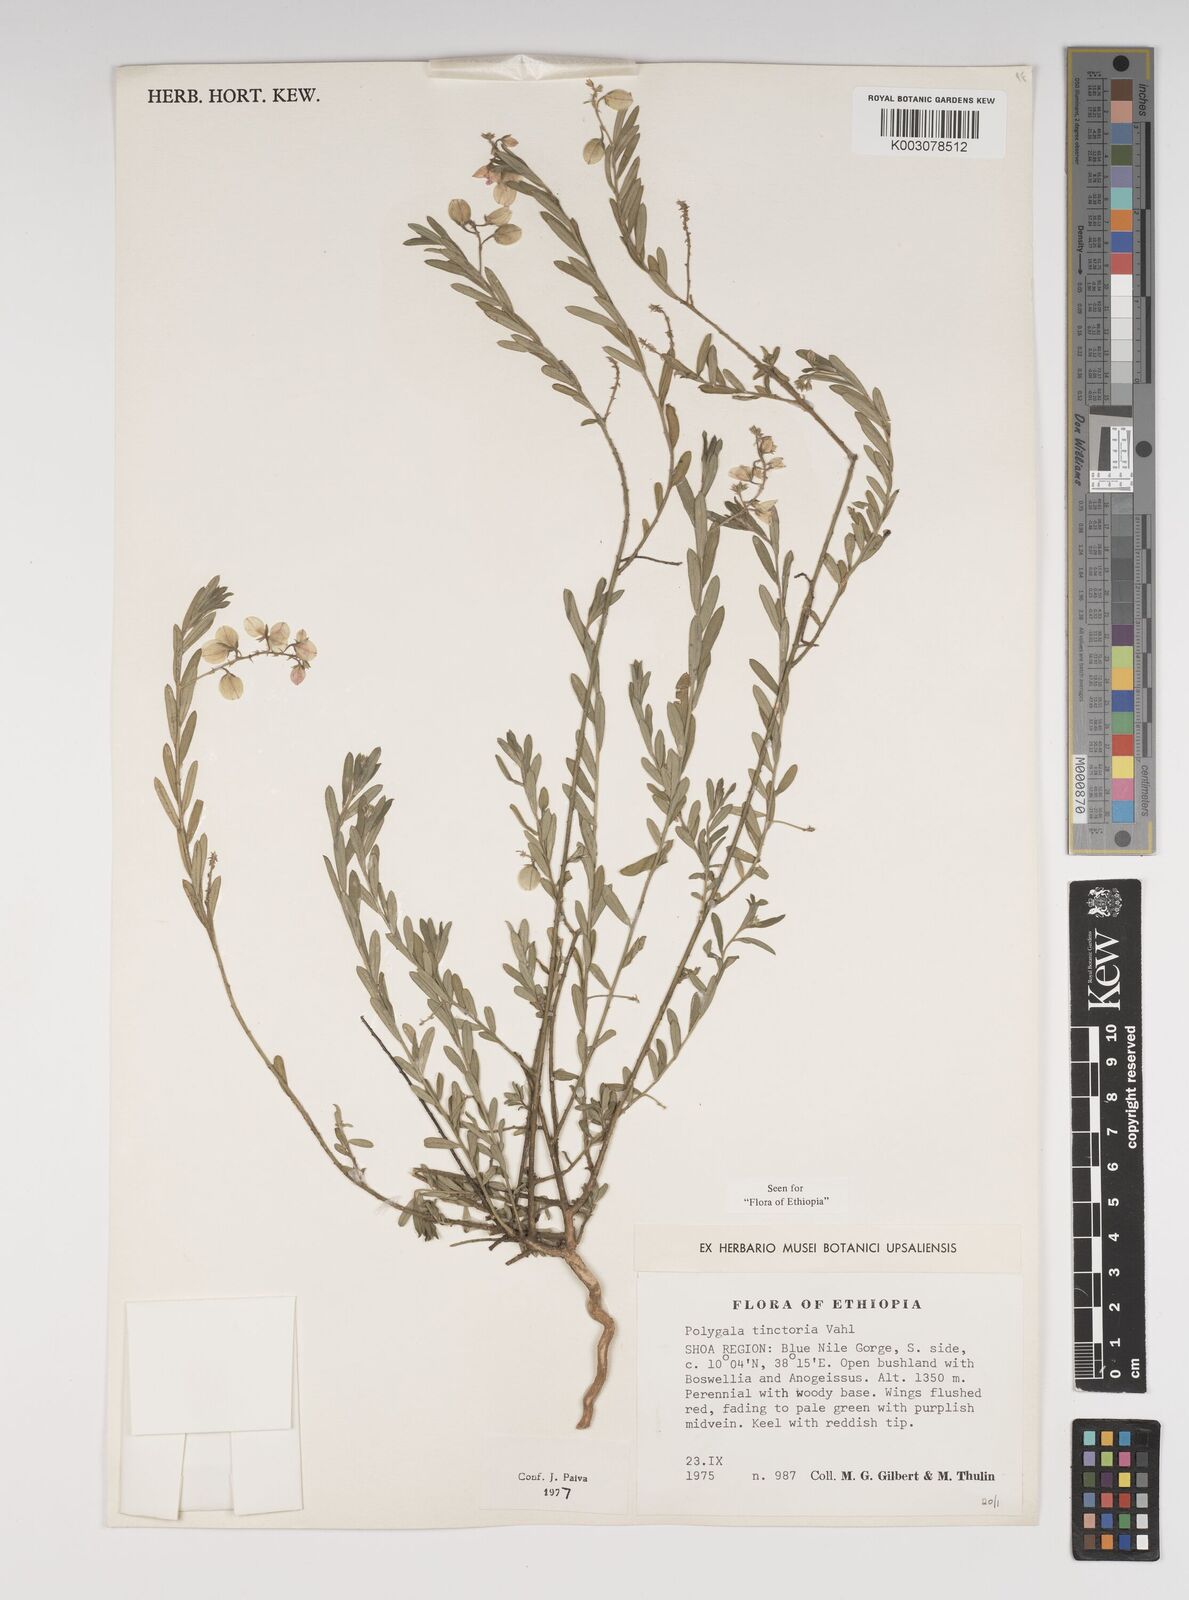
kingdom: Plantae
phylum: Tracheophyta
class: Magnoliopsida
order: Fabales
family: Polygalaceae
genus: Polygala
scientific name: Polygala tinctoria
